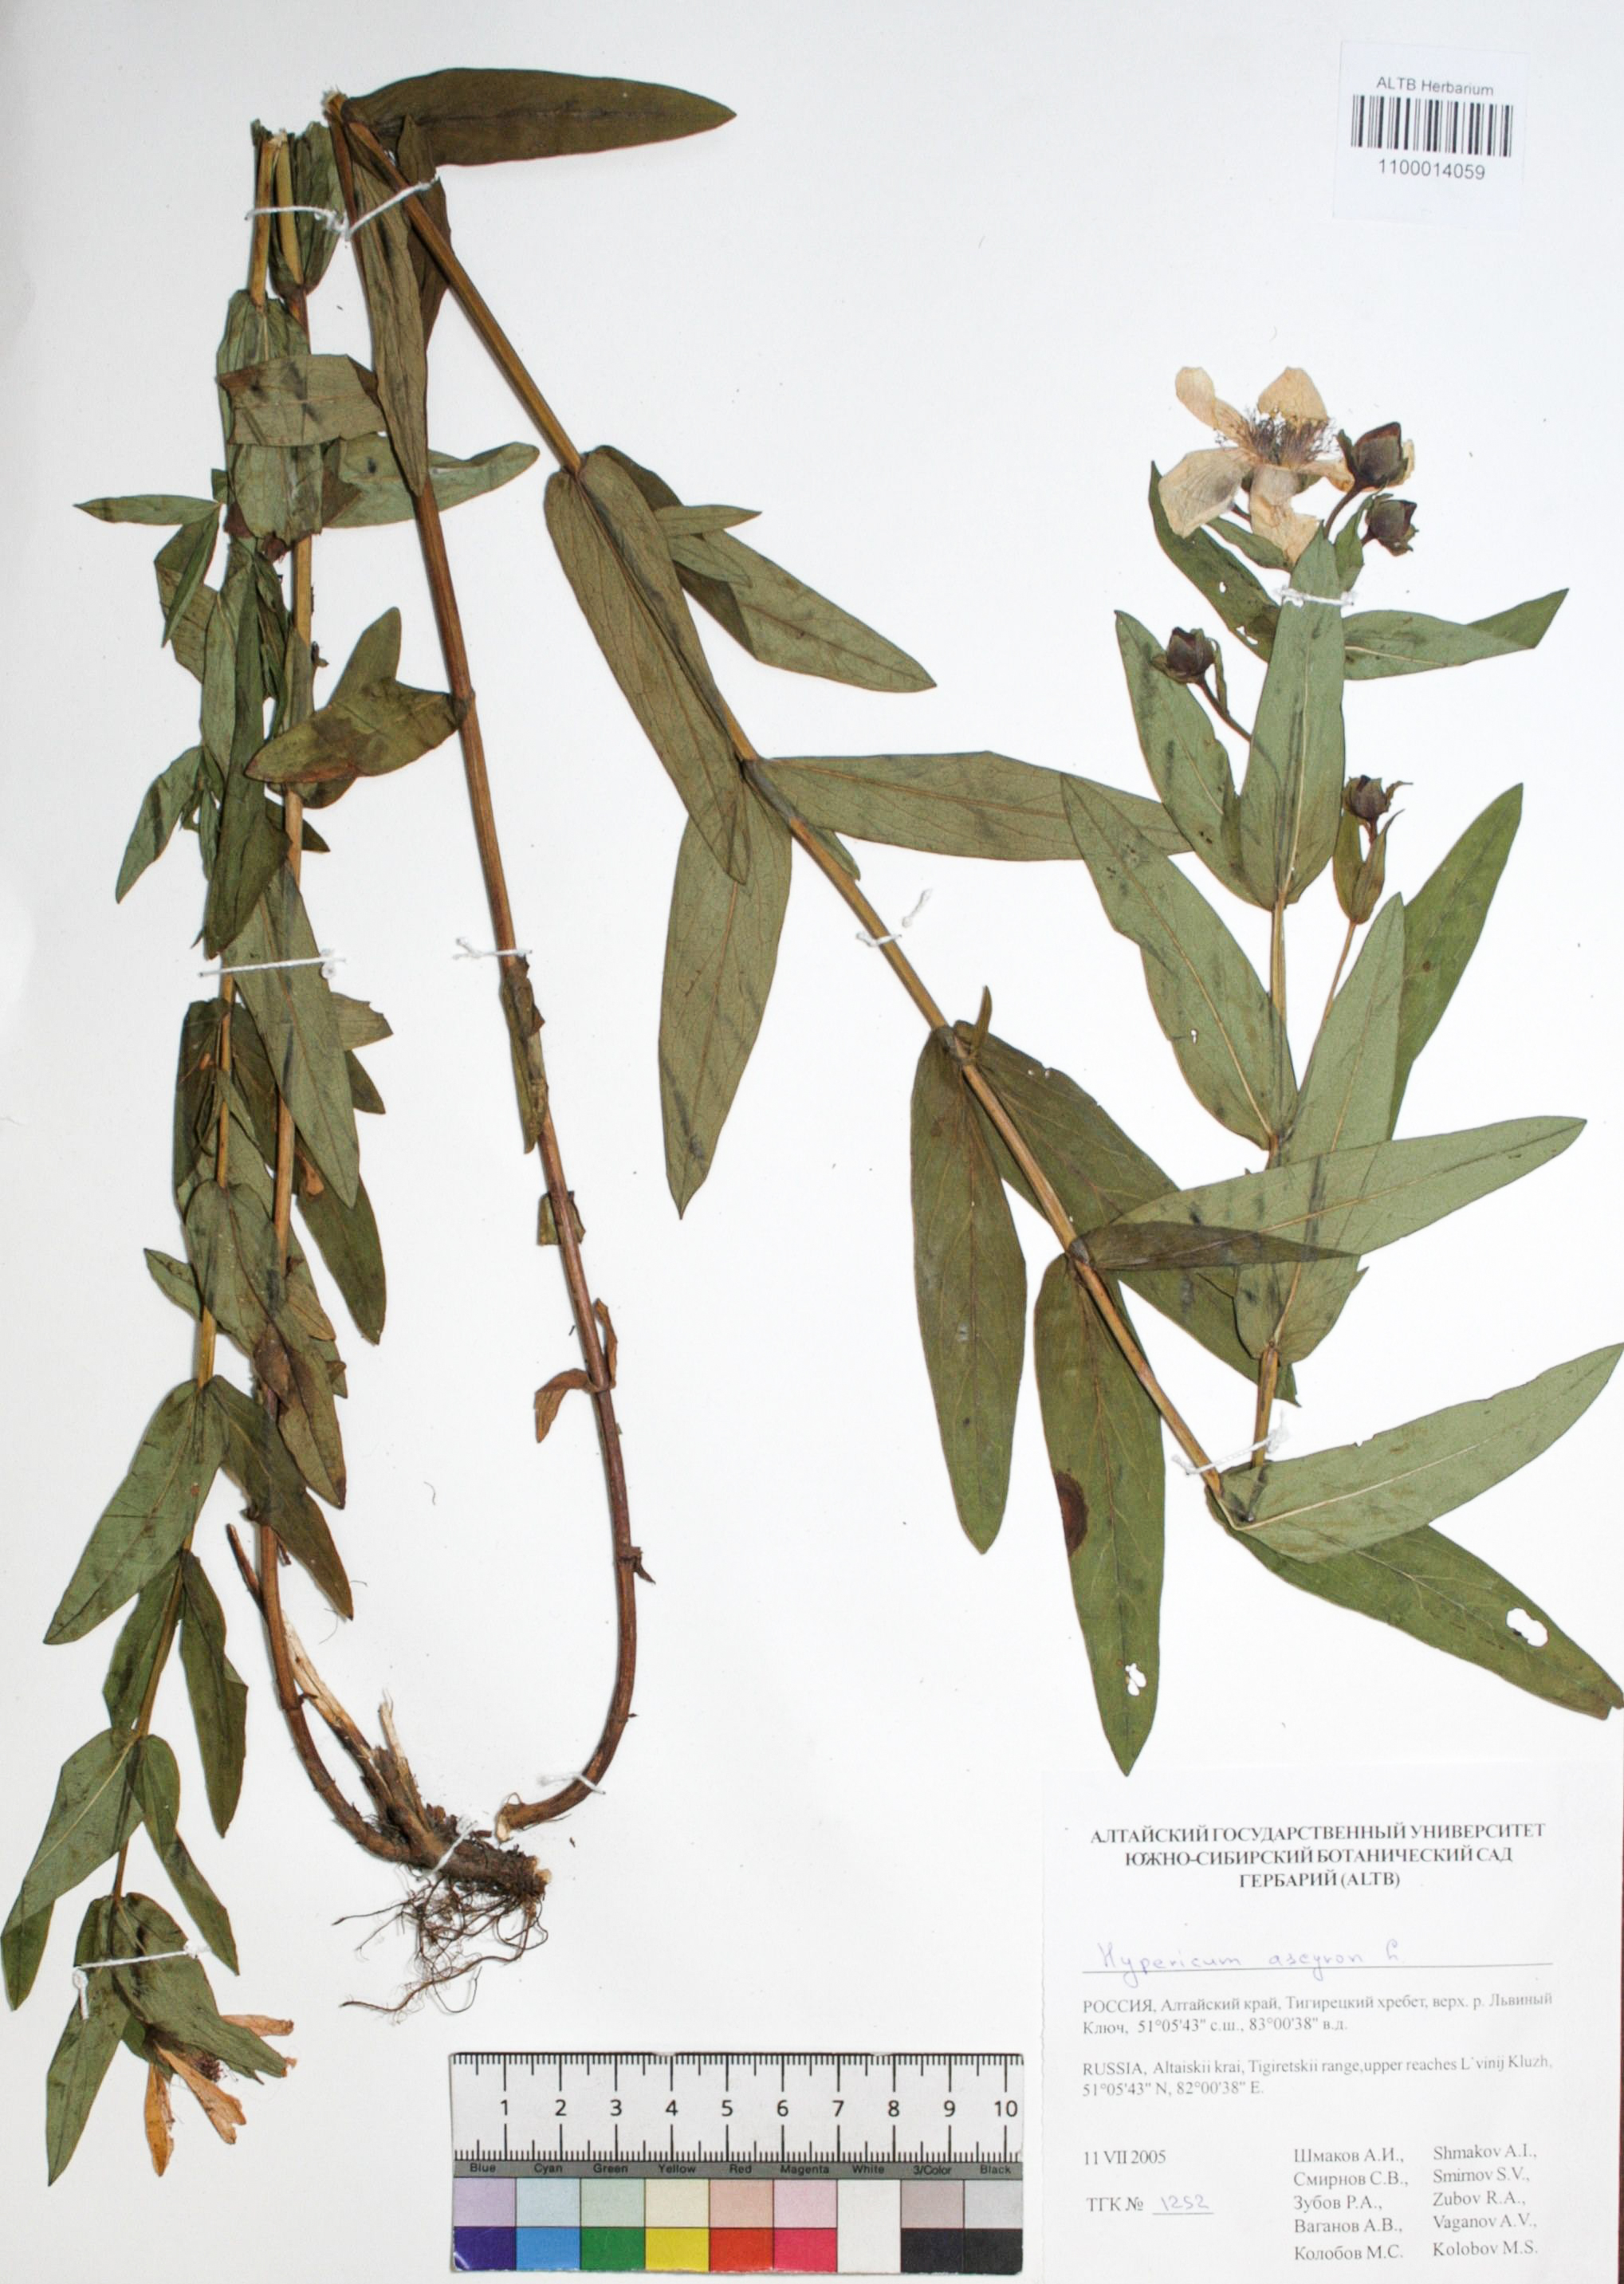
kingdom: Plantae
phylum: Tracheophyta
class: Magnoliopsida
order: Malpighiales
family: Hypericaceae
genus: Hypericum
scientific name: Hypericum ascyron
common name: Giant st. john's-wort
